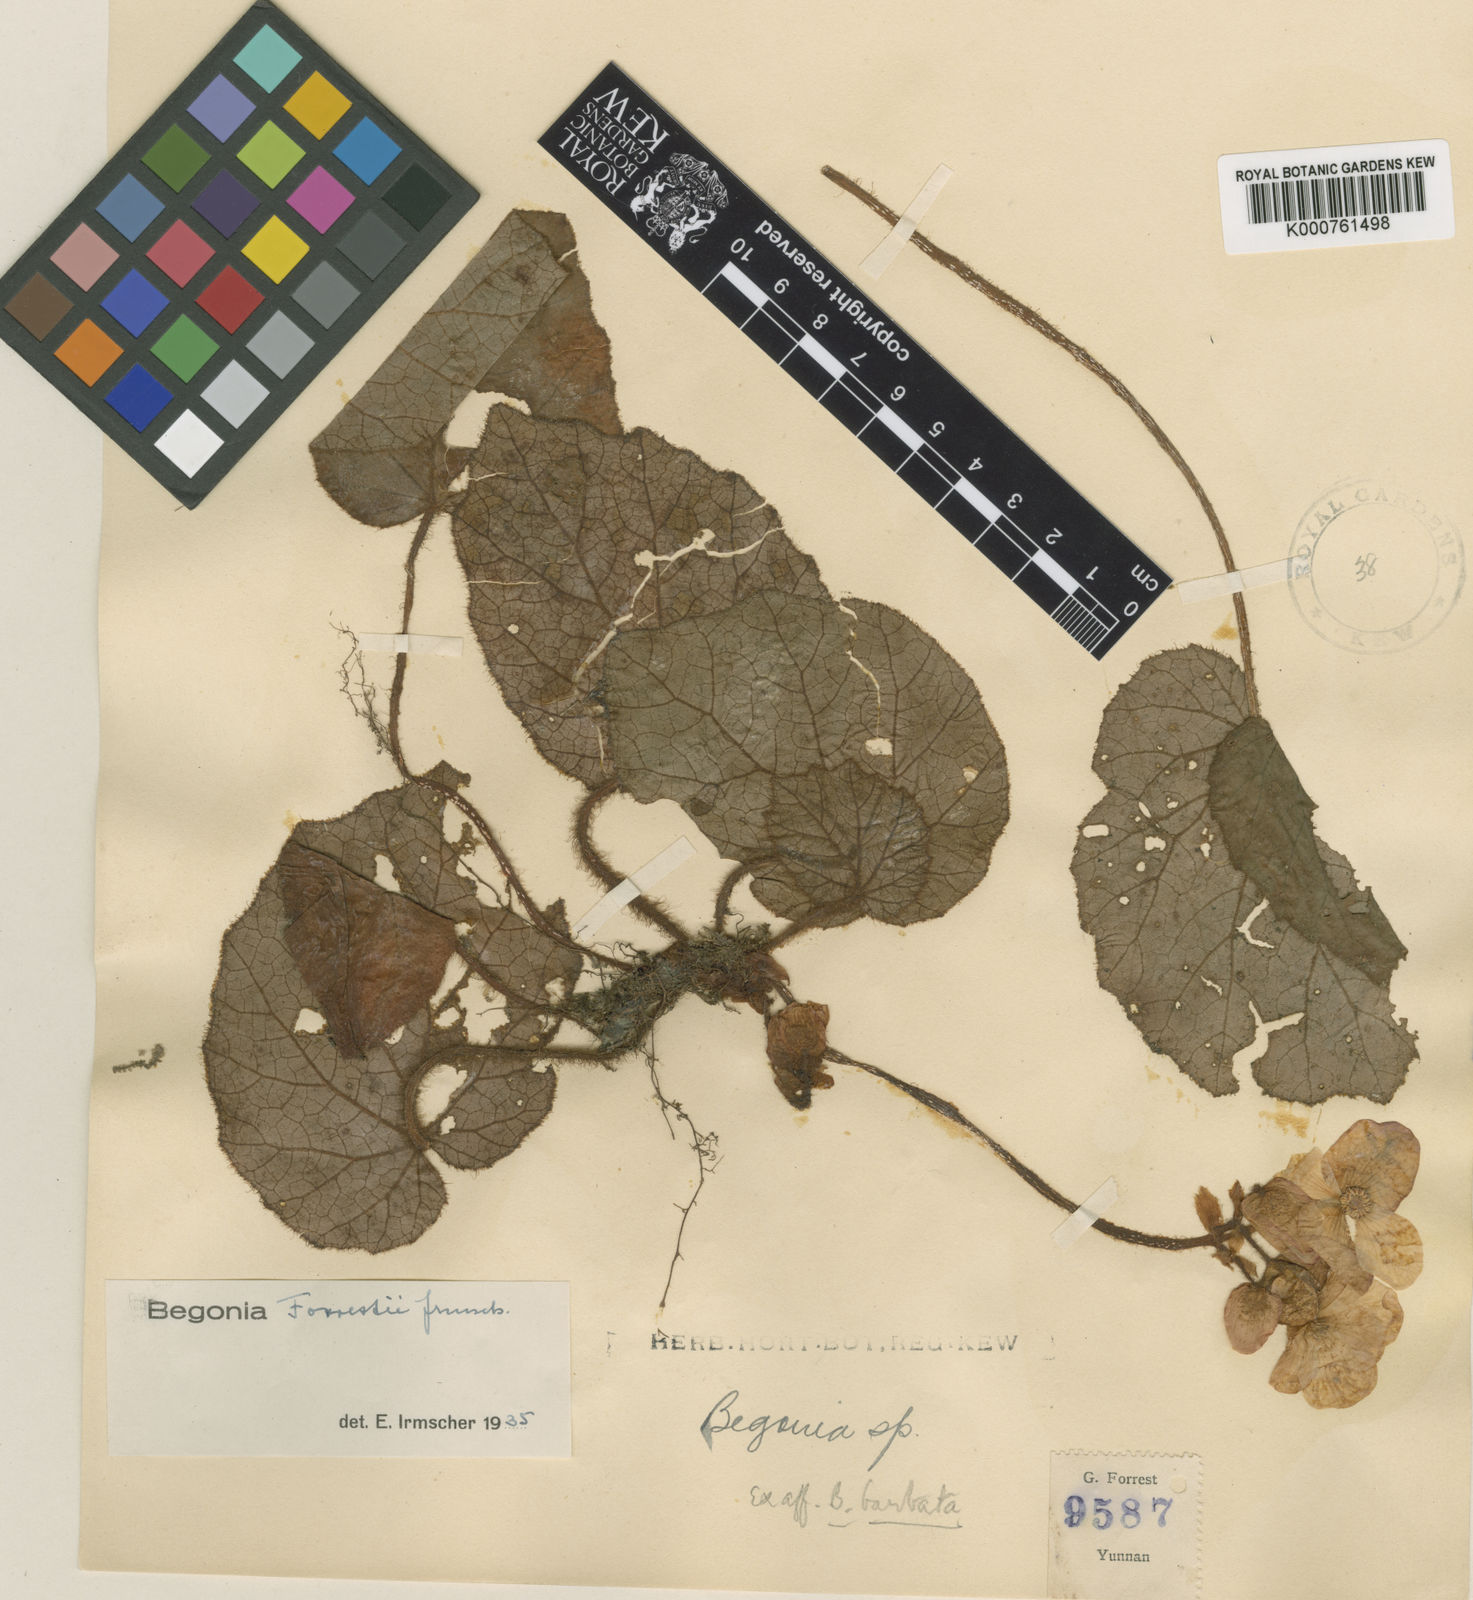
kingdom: Plantae
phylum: Tracheophyta
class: Magnoliopsida
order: Cucurbitales
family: Begoniaceae
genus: Begonia
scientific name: Begonia clavicaulis
